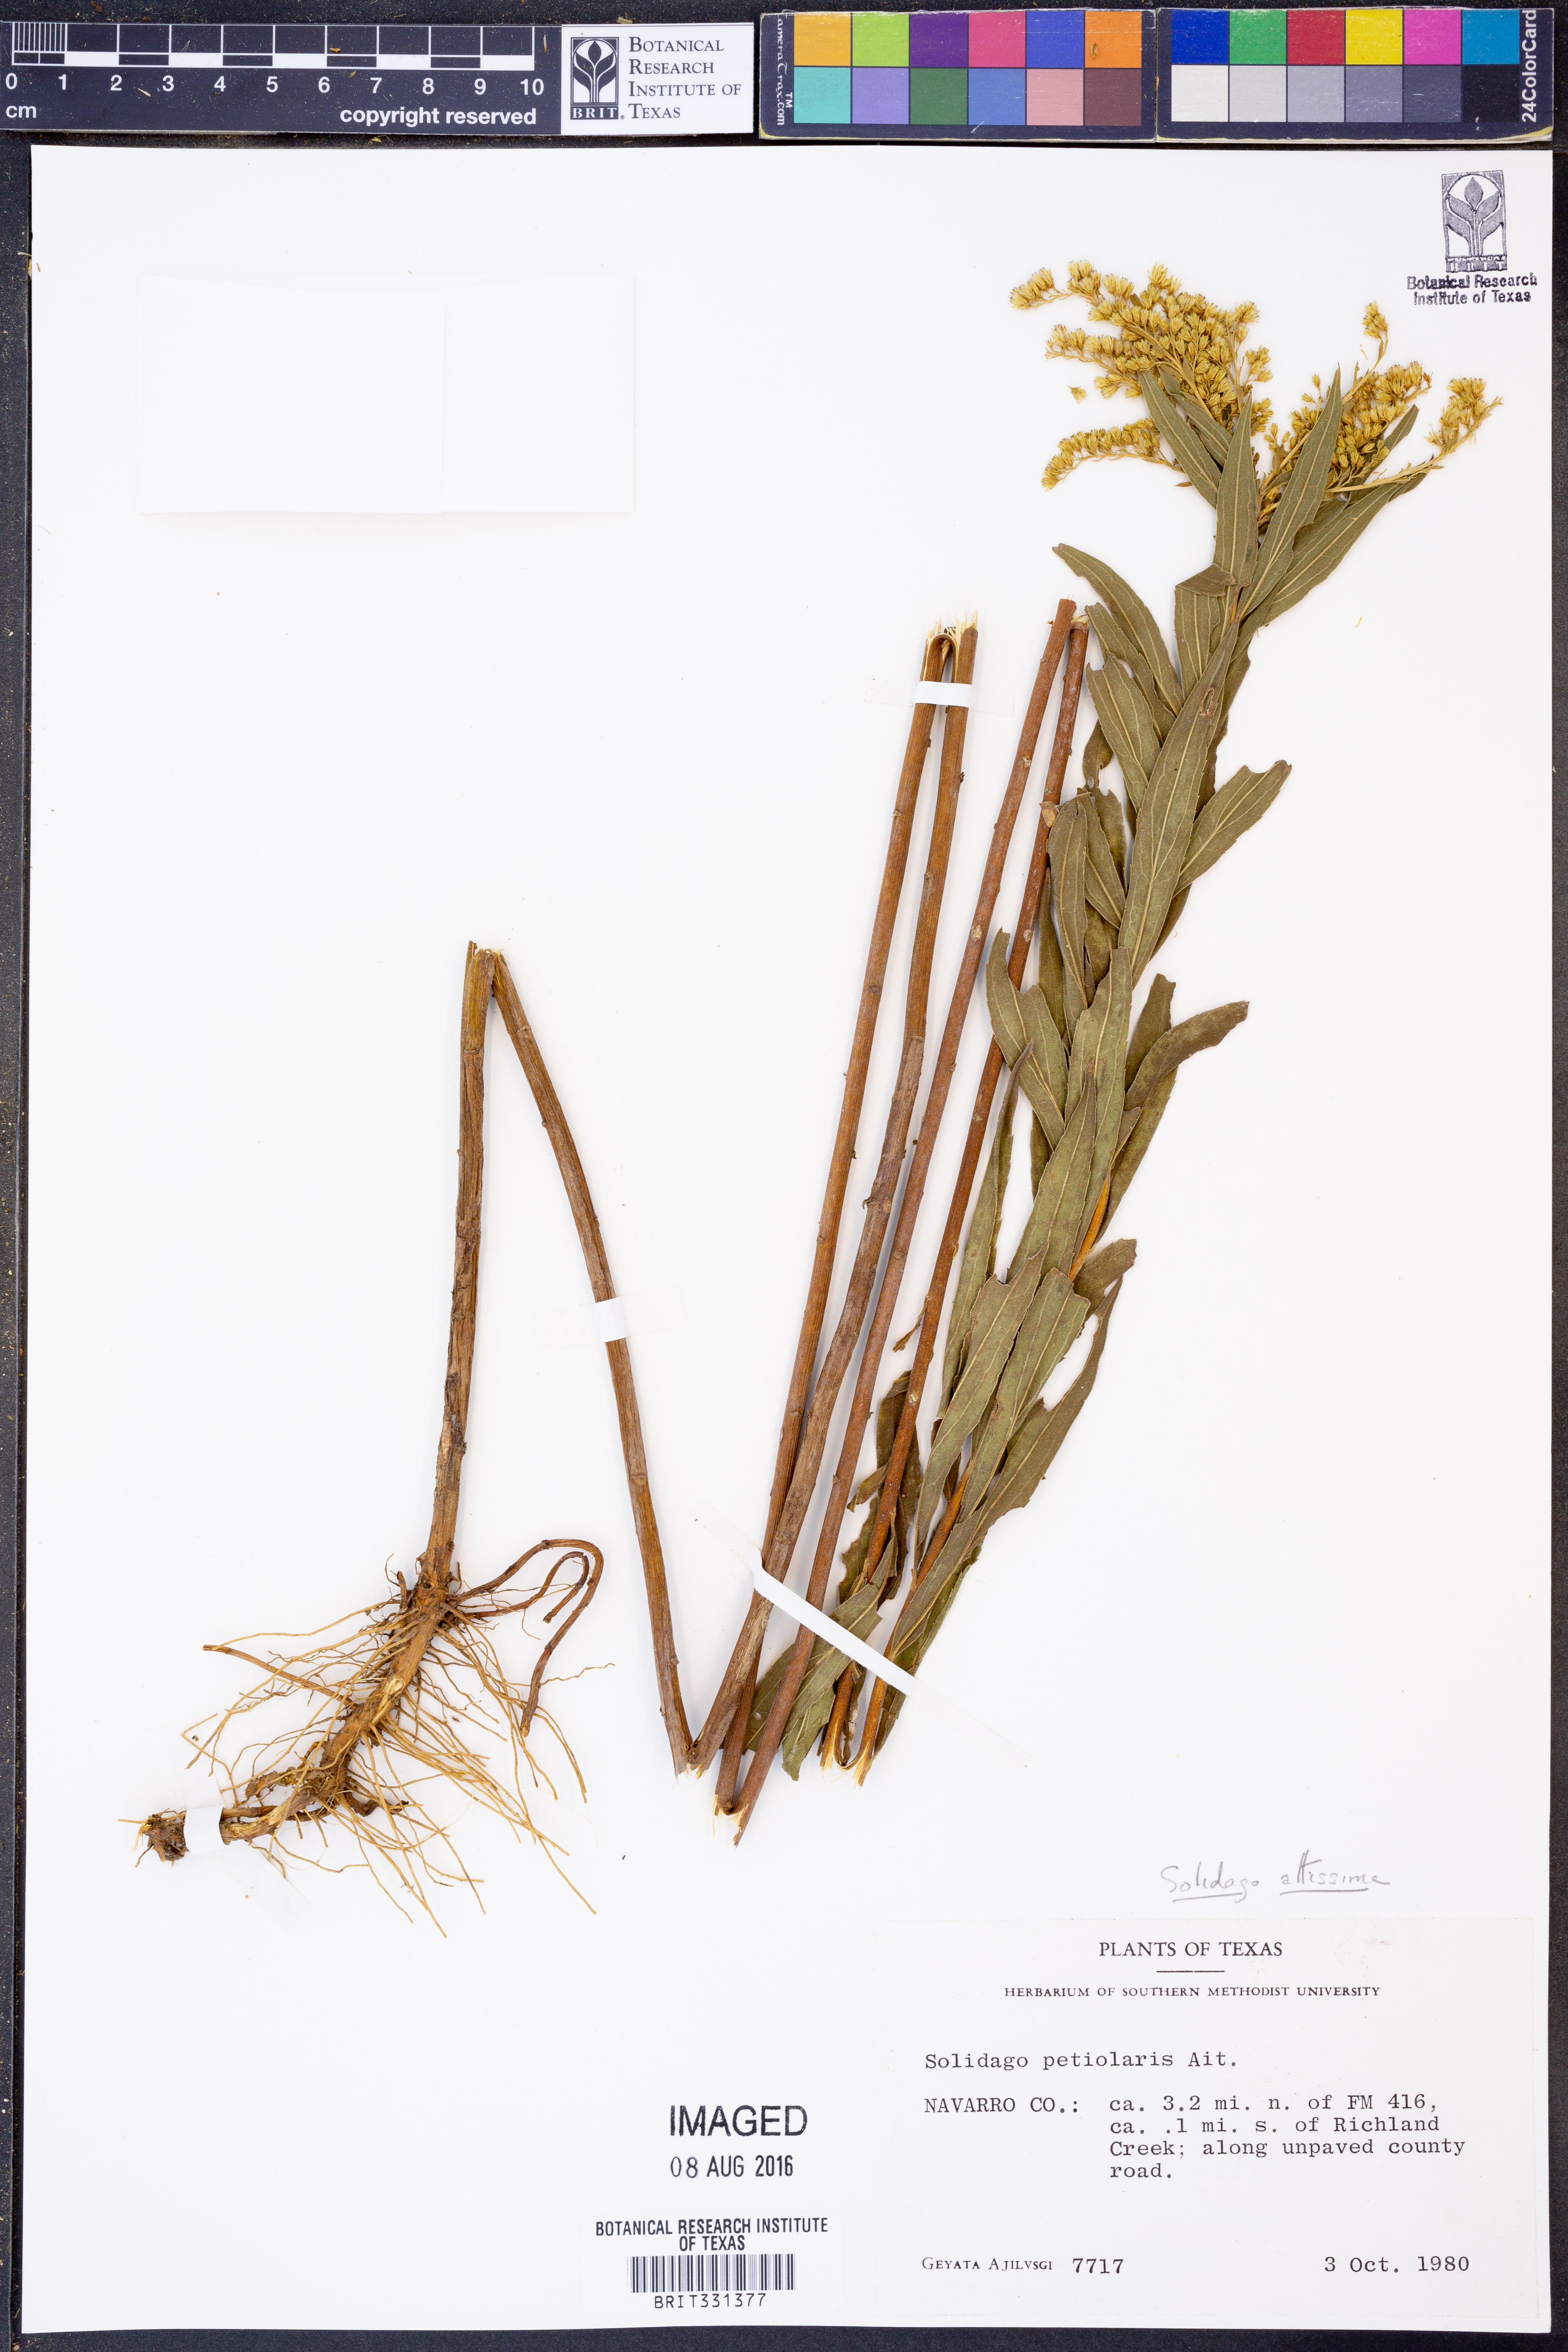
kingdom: Plantae
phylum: Tracheophyta
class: Magnoliopsida
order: Asterales
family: Asteraceae
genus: Solidago
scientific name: Solidago altissima
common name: Late goldenrod
